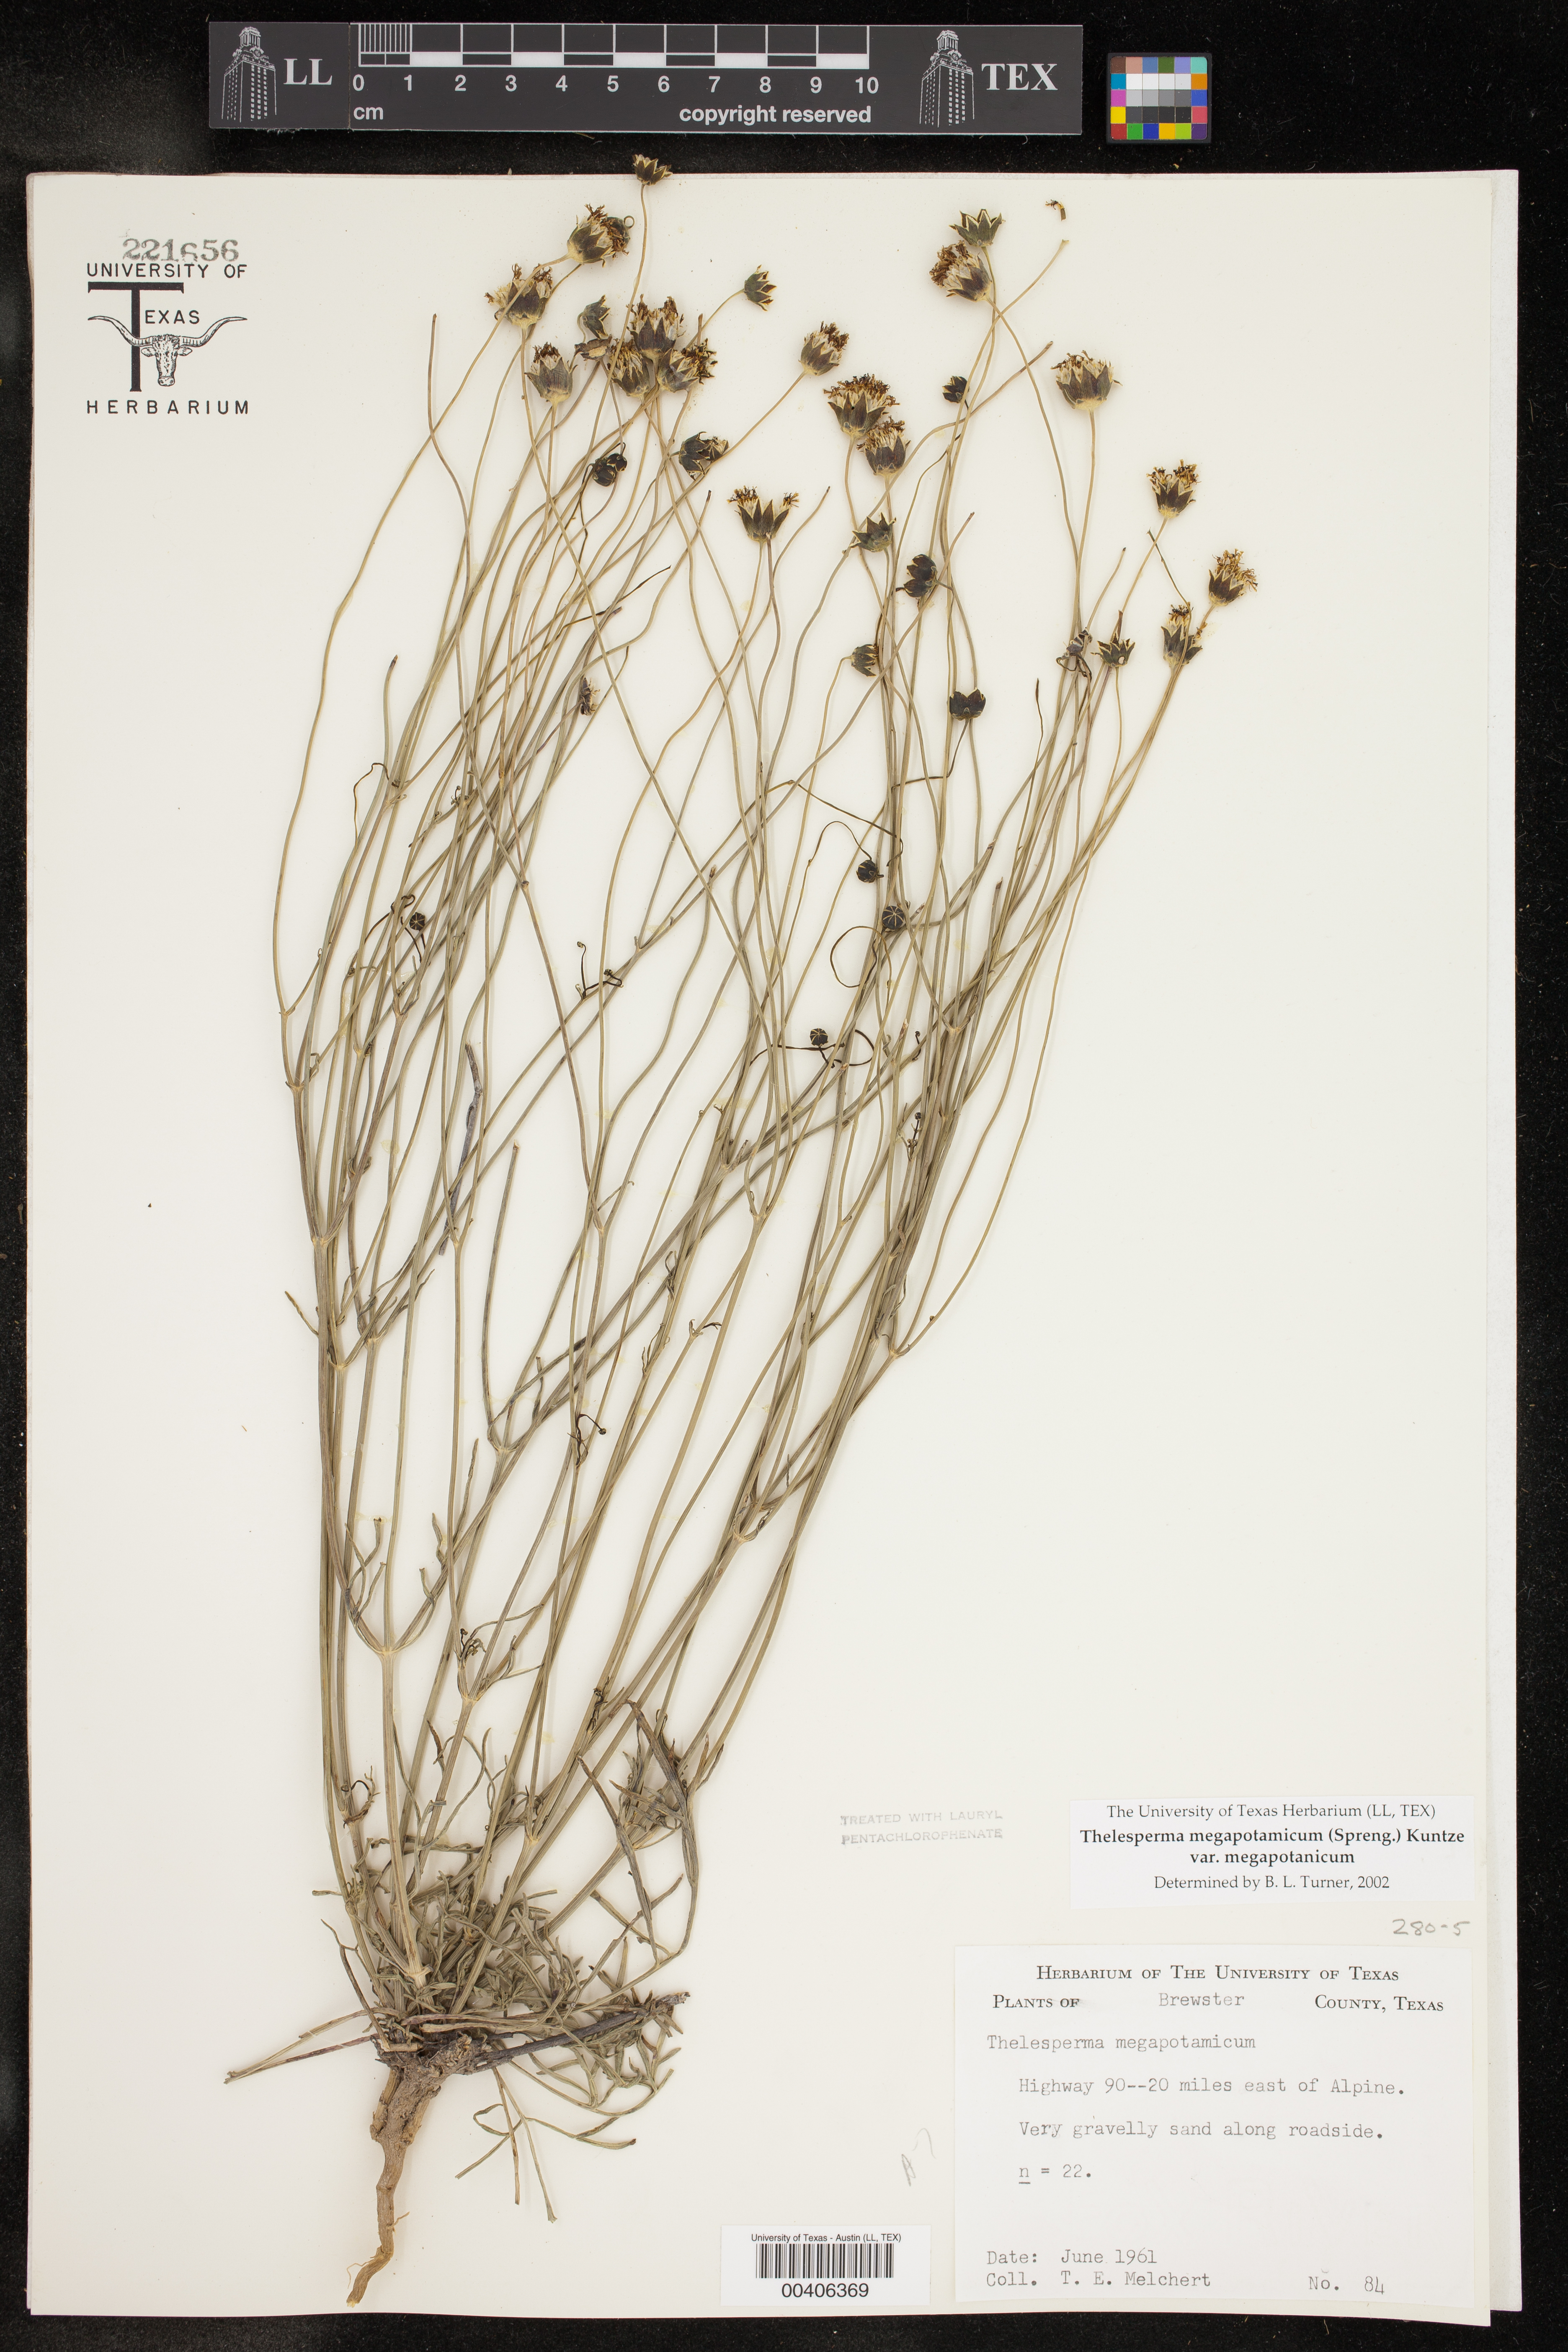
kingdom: Plantae
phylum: Tracheophyta
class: Magnoliopsida
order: Asterales
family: Asteraceae
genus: Thelesperma
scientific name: Thelesperma megapotamicum
